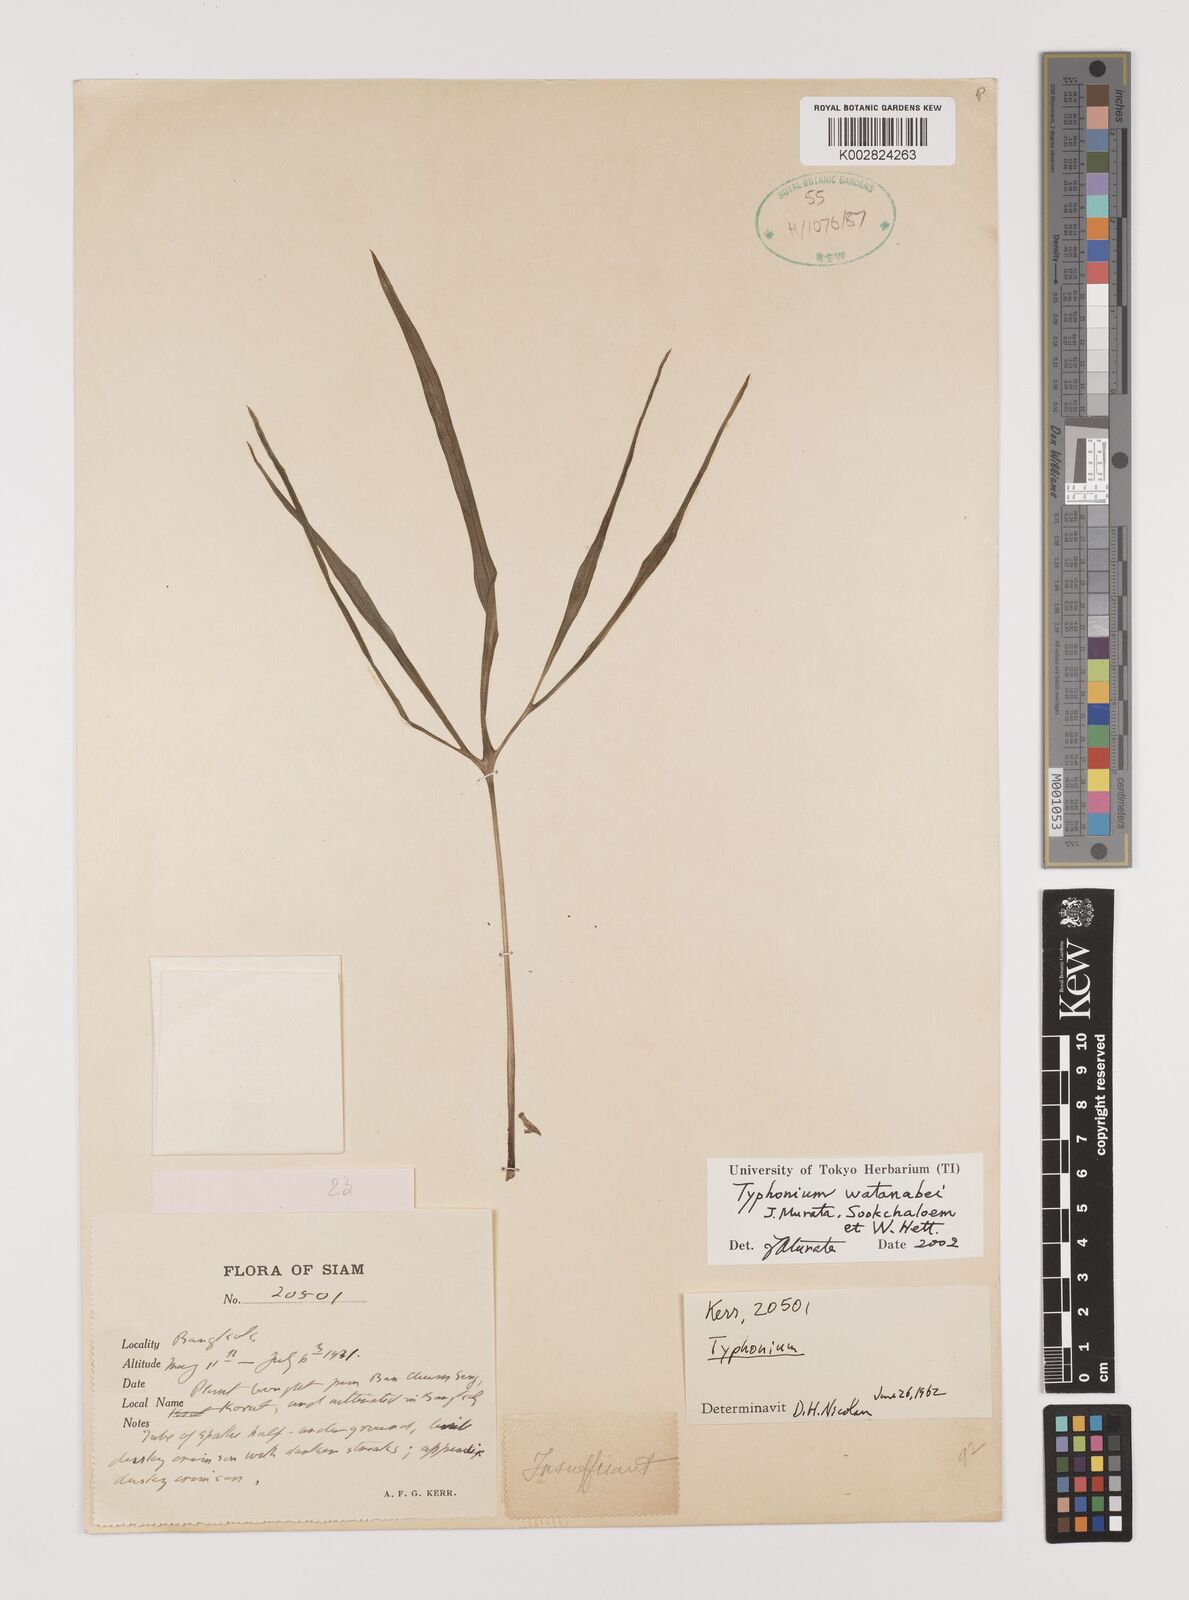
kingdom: Plantae
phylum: Tracheophyta
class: Liliopsida
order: Alismatales
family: Araceae
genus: Typhonium
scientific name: Typhonium watanabei
